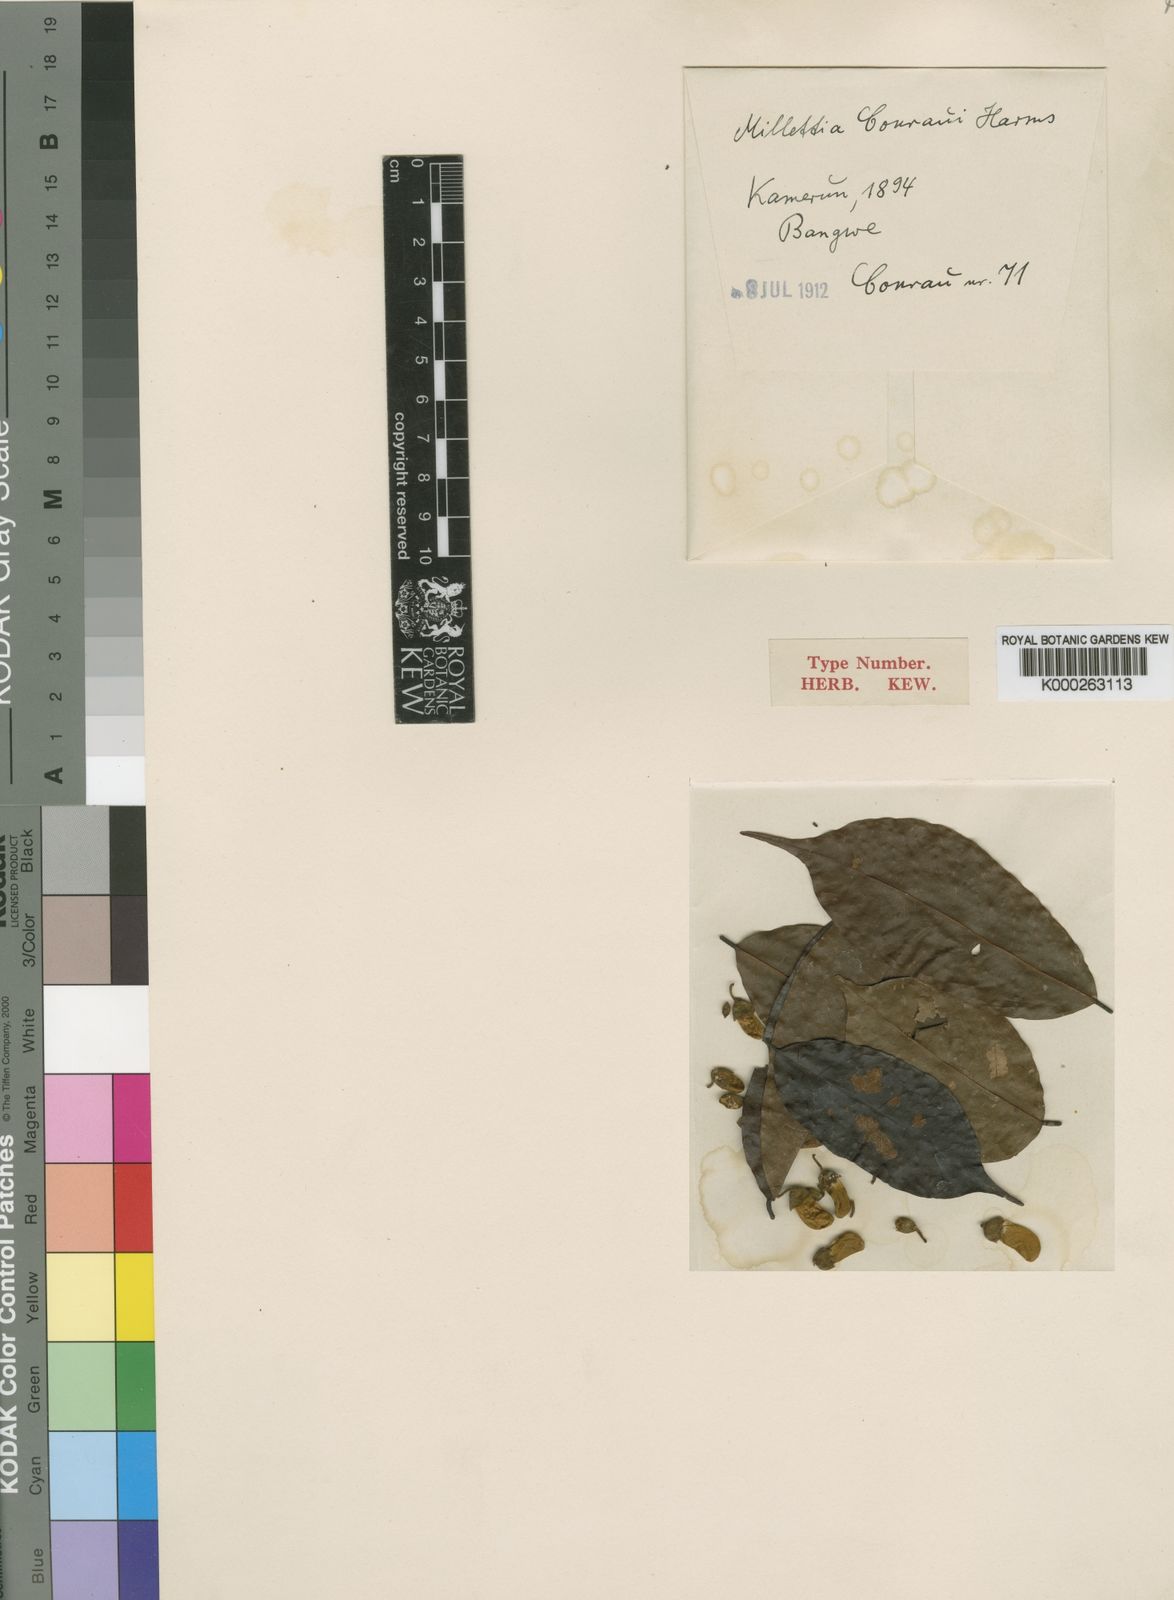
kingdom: Plantae
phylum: Tracheophyta
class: Magnoliopsida
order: Fabales
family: Fabaceae
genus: Millettia
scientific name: Millettia conraui
